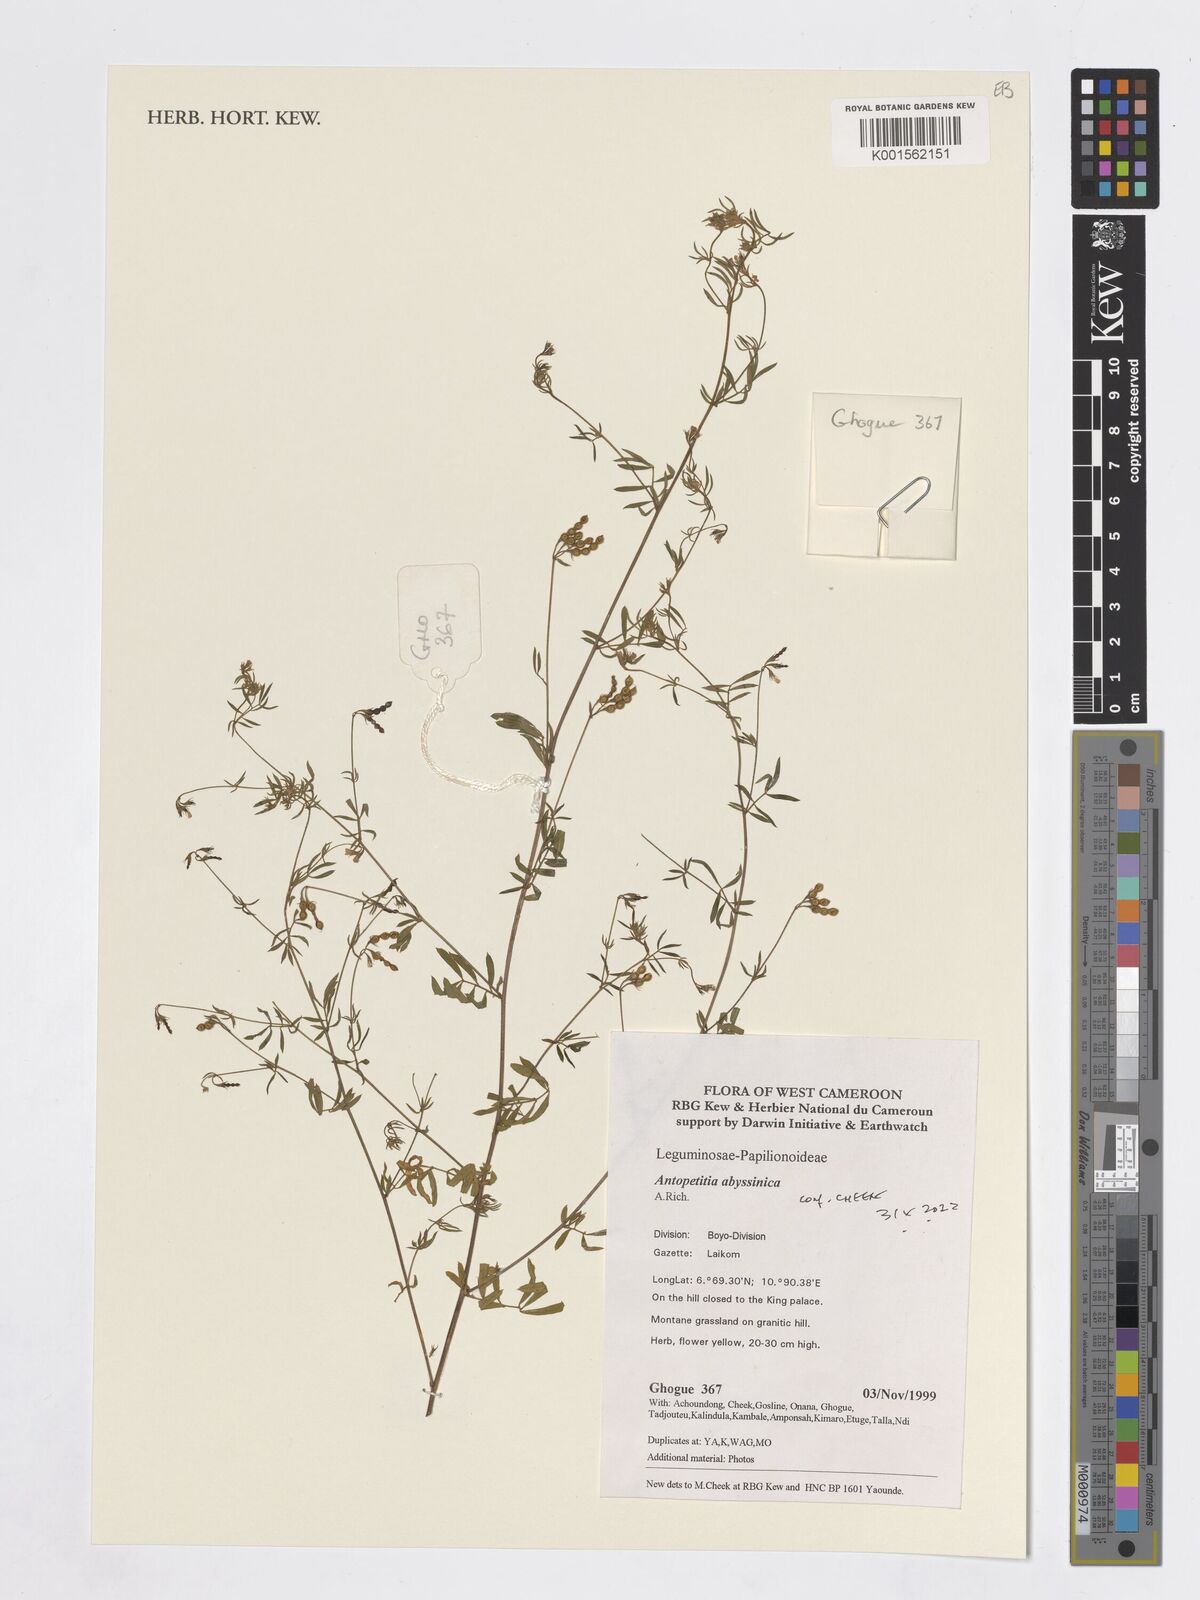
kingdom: Plantae
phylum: Tracheophyta
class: Magnoliopsida
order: Fabales
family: Fabaceae
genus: Antopetitia
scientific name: Antopetitia abyssinica
